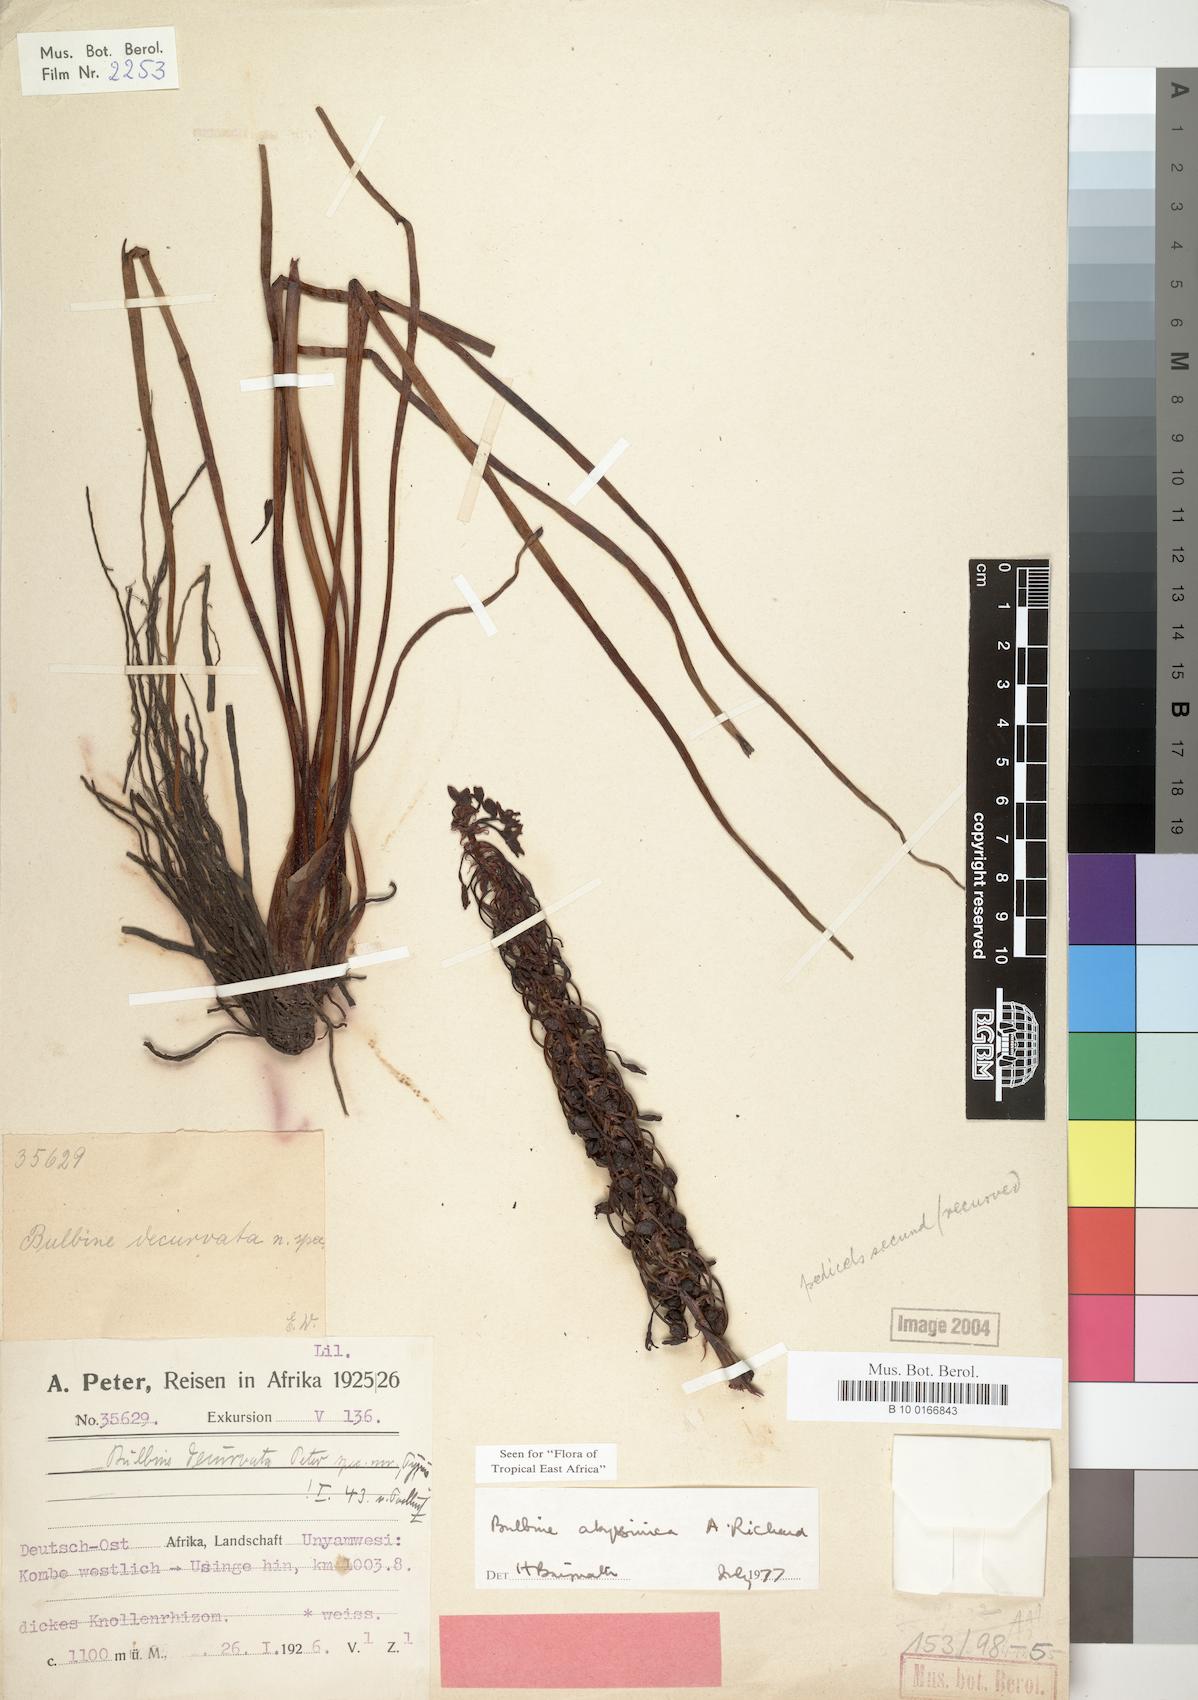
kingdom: Plantae
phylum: Tracheophyta
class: Liliopsida
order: Asparagales
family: Asphodelaceae
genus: Bulbine
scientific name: Bulbine abyssinica
